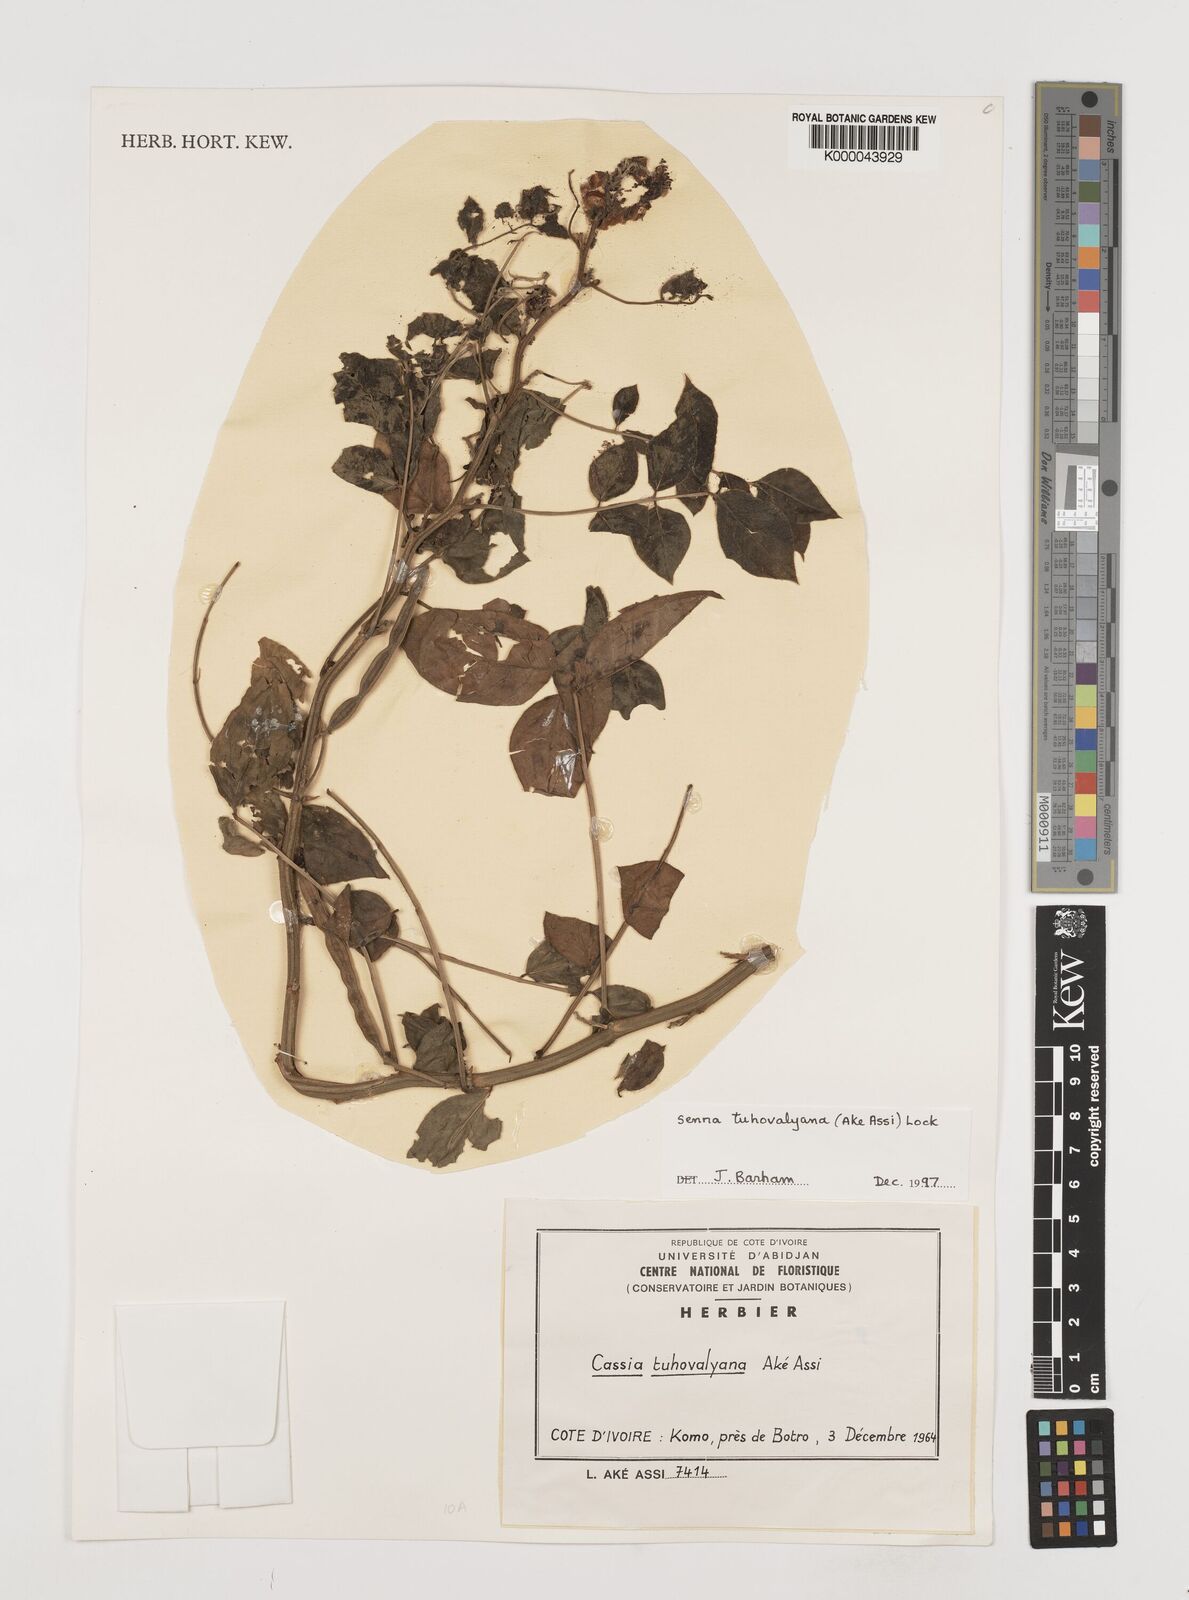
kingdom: Plantae
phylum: Tracheophyta
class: Magnoliopsida
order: Fabales
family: Fabaceae
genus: Senna
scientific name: Senna
